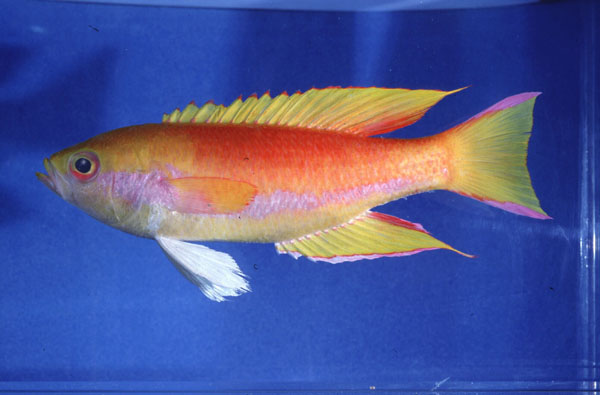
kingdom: Animalia
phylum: Chordata
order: Perciformes
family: Callanthiidae
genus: Callanthias
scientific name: Callanthias legras
